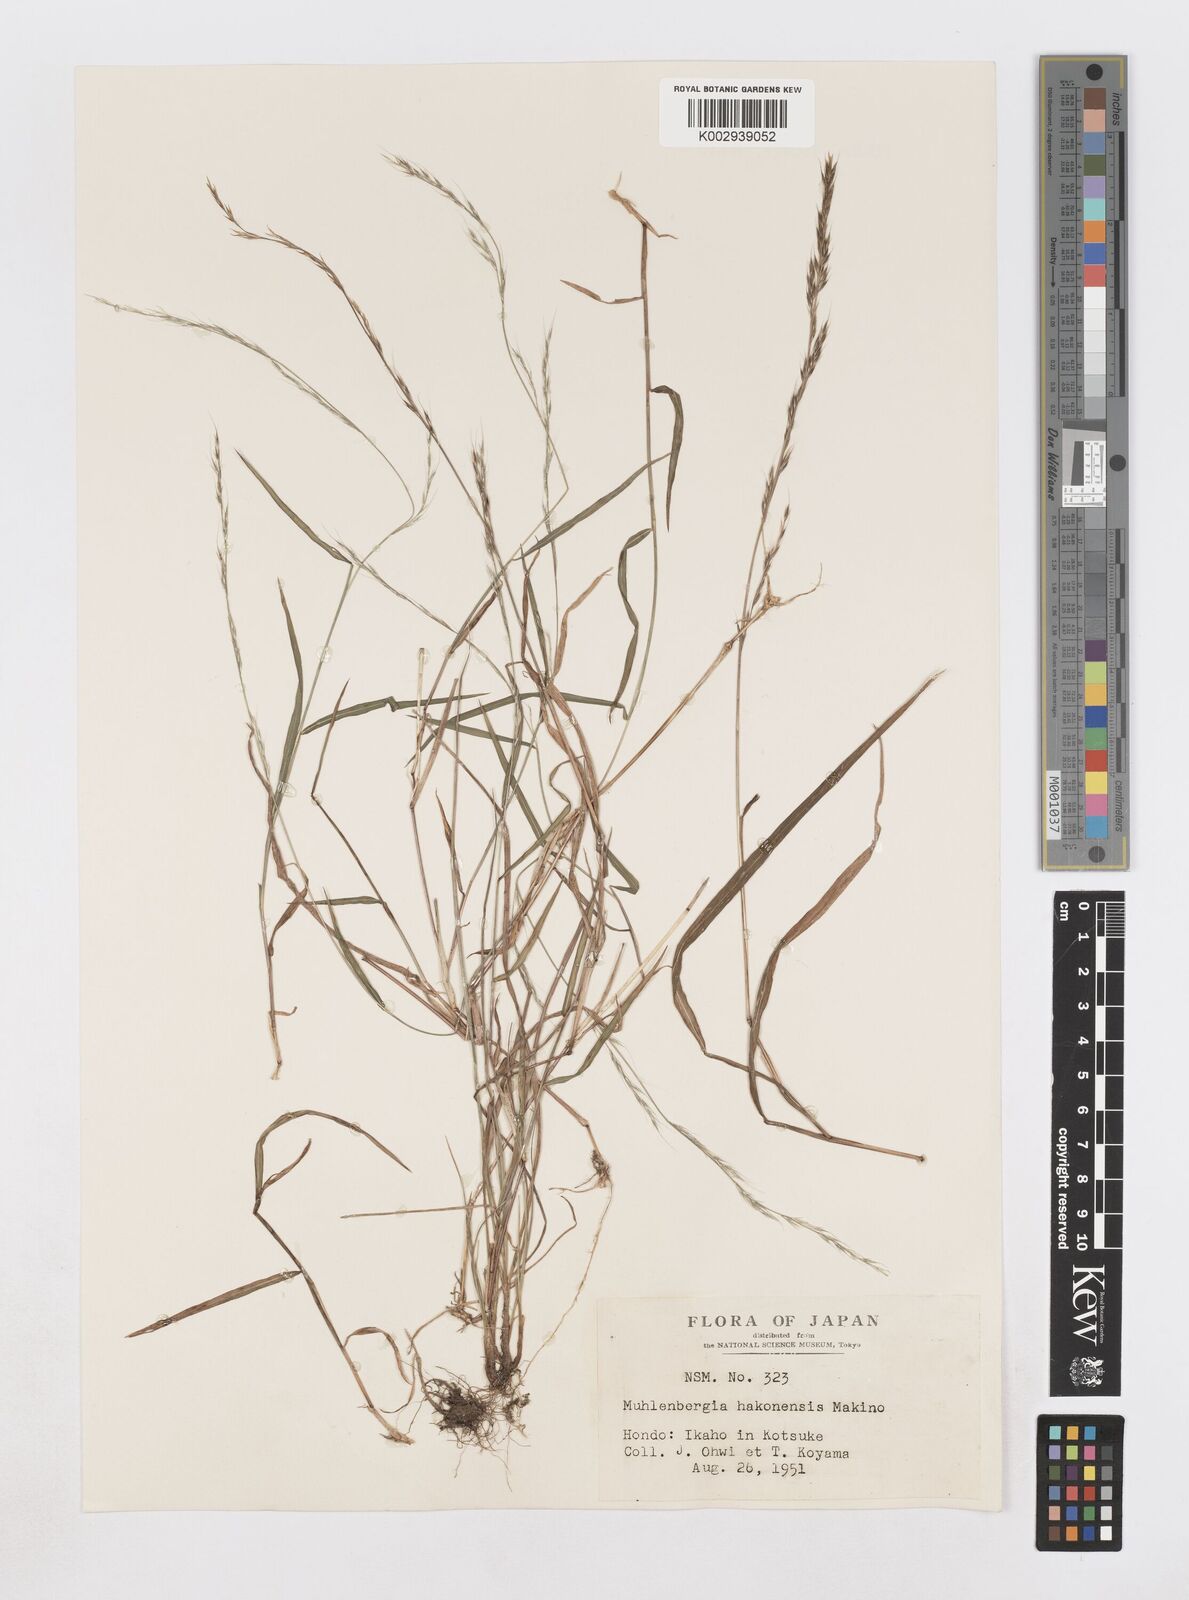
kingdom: Plantae
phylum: Tracheophyta
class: Liliopsida
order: Poales
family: Poaceae
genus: Muhlenbergia
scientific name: Muhlenbergia hakonensis
